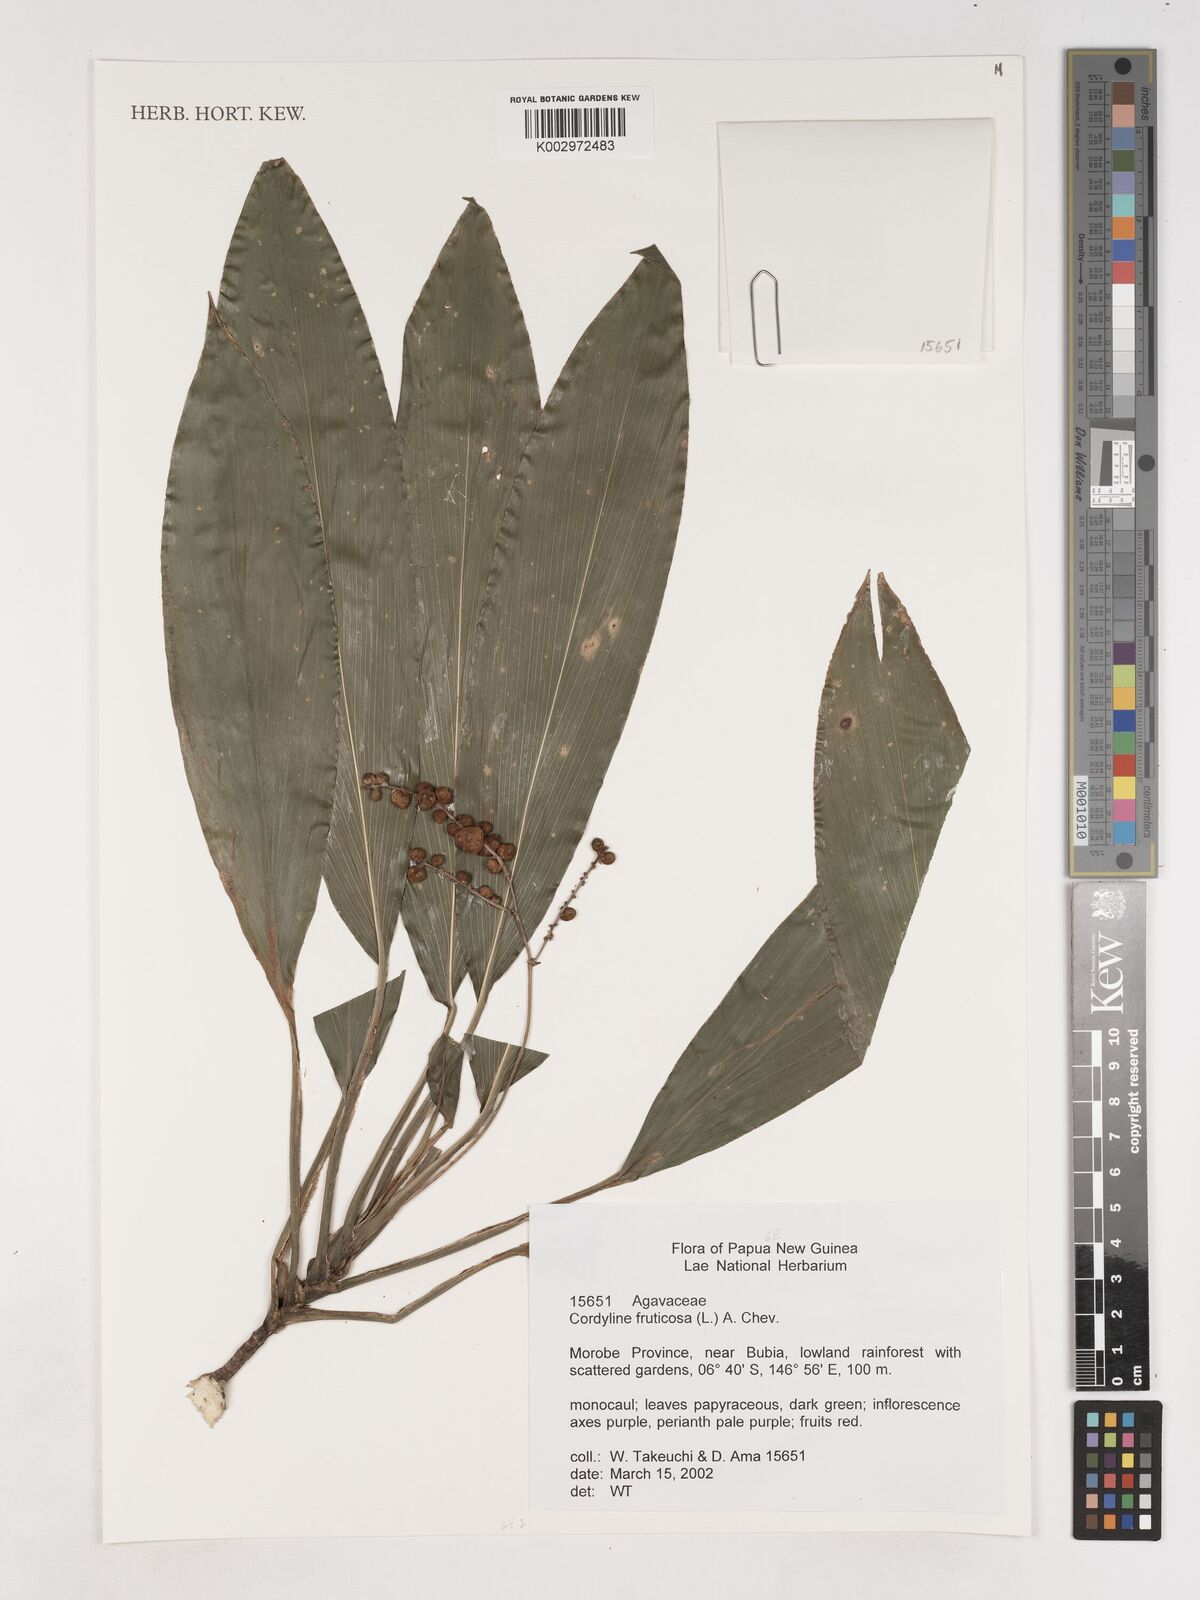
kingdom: Plantae
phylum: Tracheophyta
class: Liliopsida
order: Asparagales
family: Asparagaceae
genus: Cordyline
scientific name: Cordyline fruticosa
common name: Good-luck-plant
